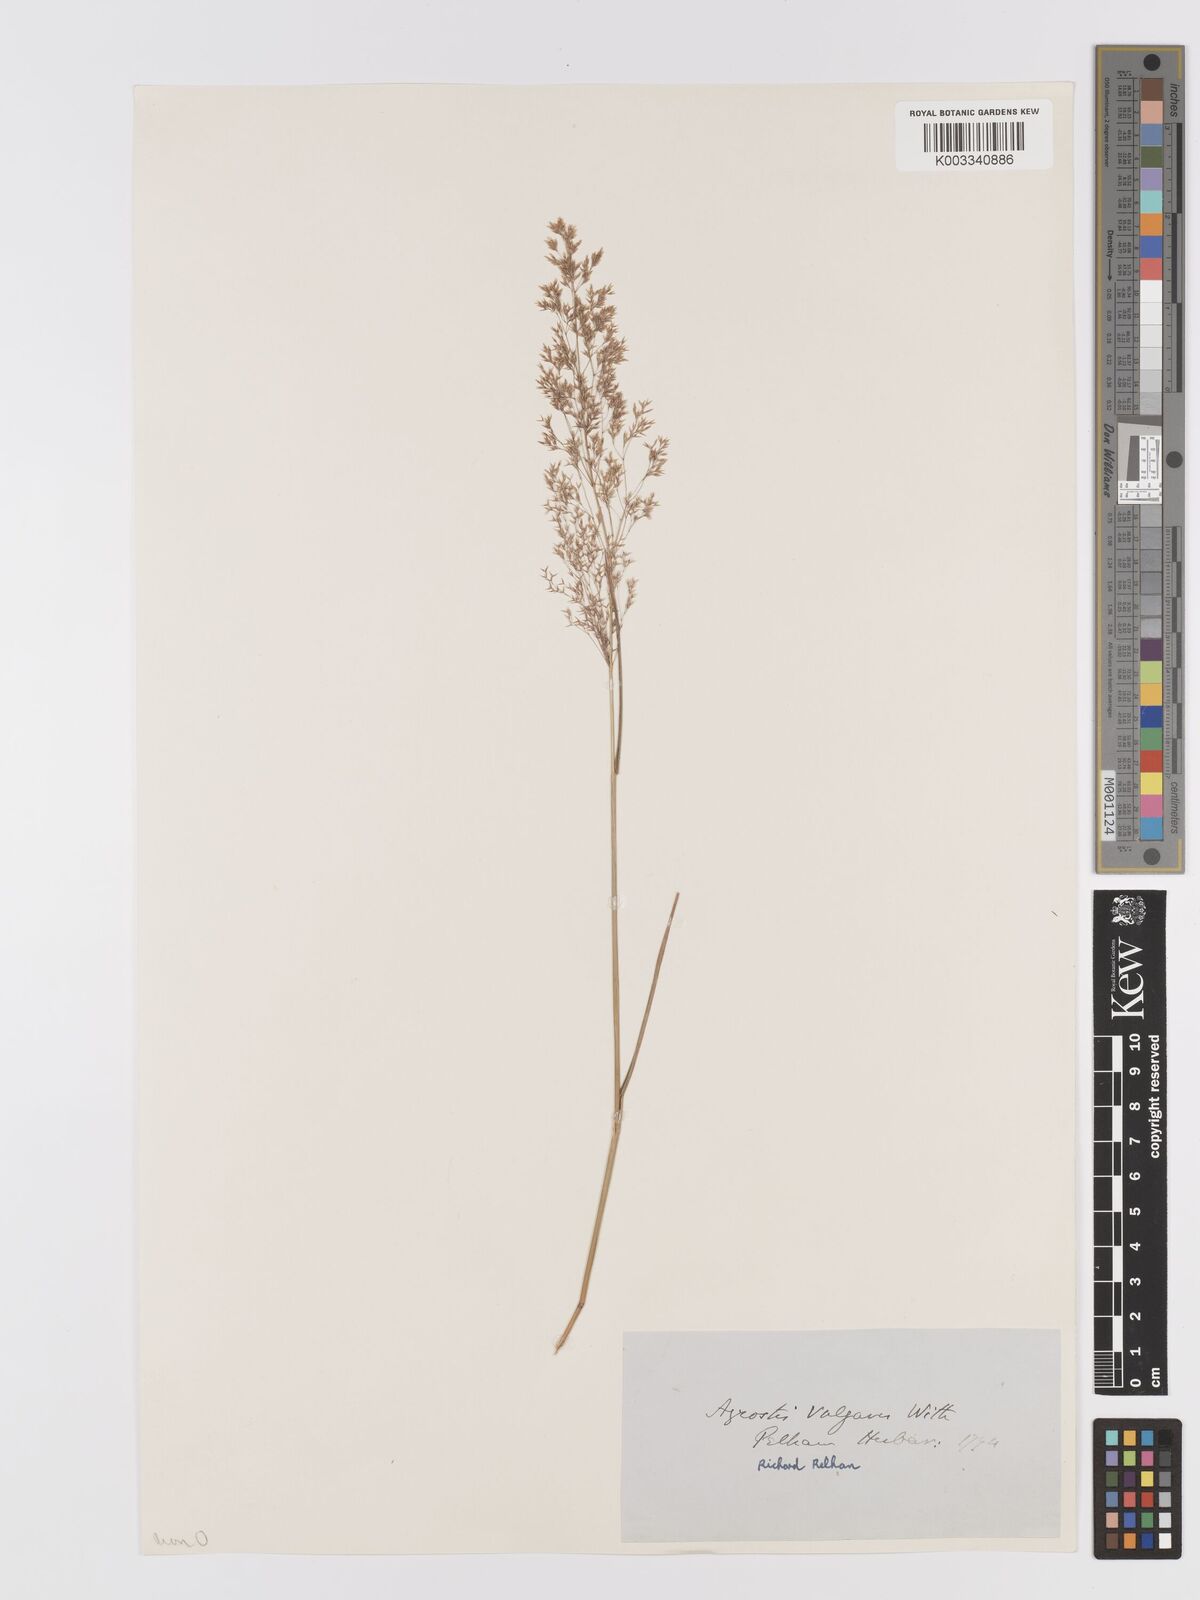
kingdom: Plantae
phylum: Tracheophyta
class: Liliopsida
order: Poales
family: Poaceae
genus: Agrostis
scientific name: Agrostis capillaris
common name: Colonial bentgrass
